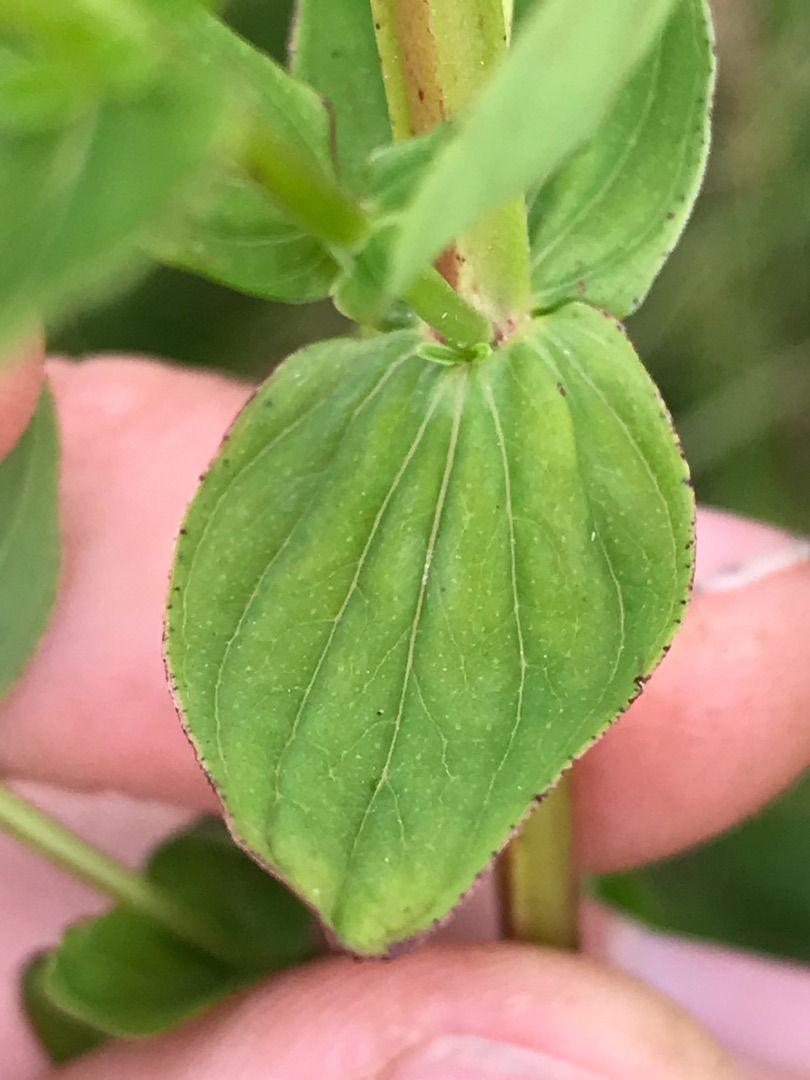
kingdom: Plantae
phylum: Tracheophyta
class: Magnoliopsida
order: Malpighiales
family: Hypericaceae
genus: Hypericum
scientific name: Hypericum tetrapterum
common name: Vinget perikon
